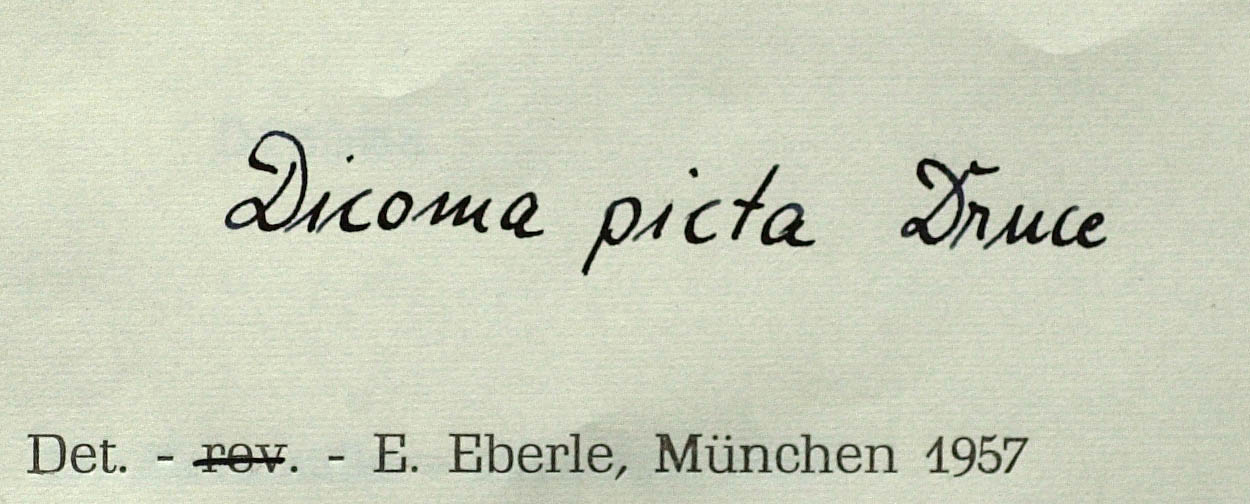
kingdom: Plantae
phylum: Tracheophyta
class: Magnoliopsida
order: Asterales
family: Asteraceae
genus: Dicoma
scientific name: Dicoma obconica
